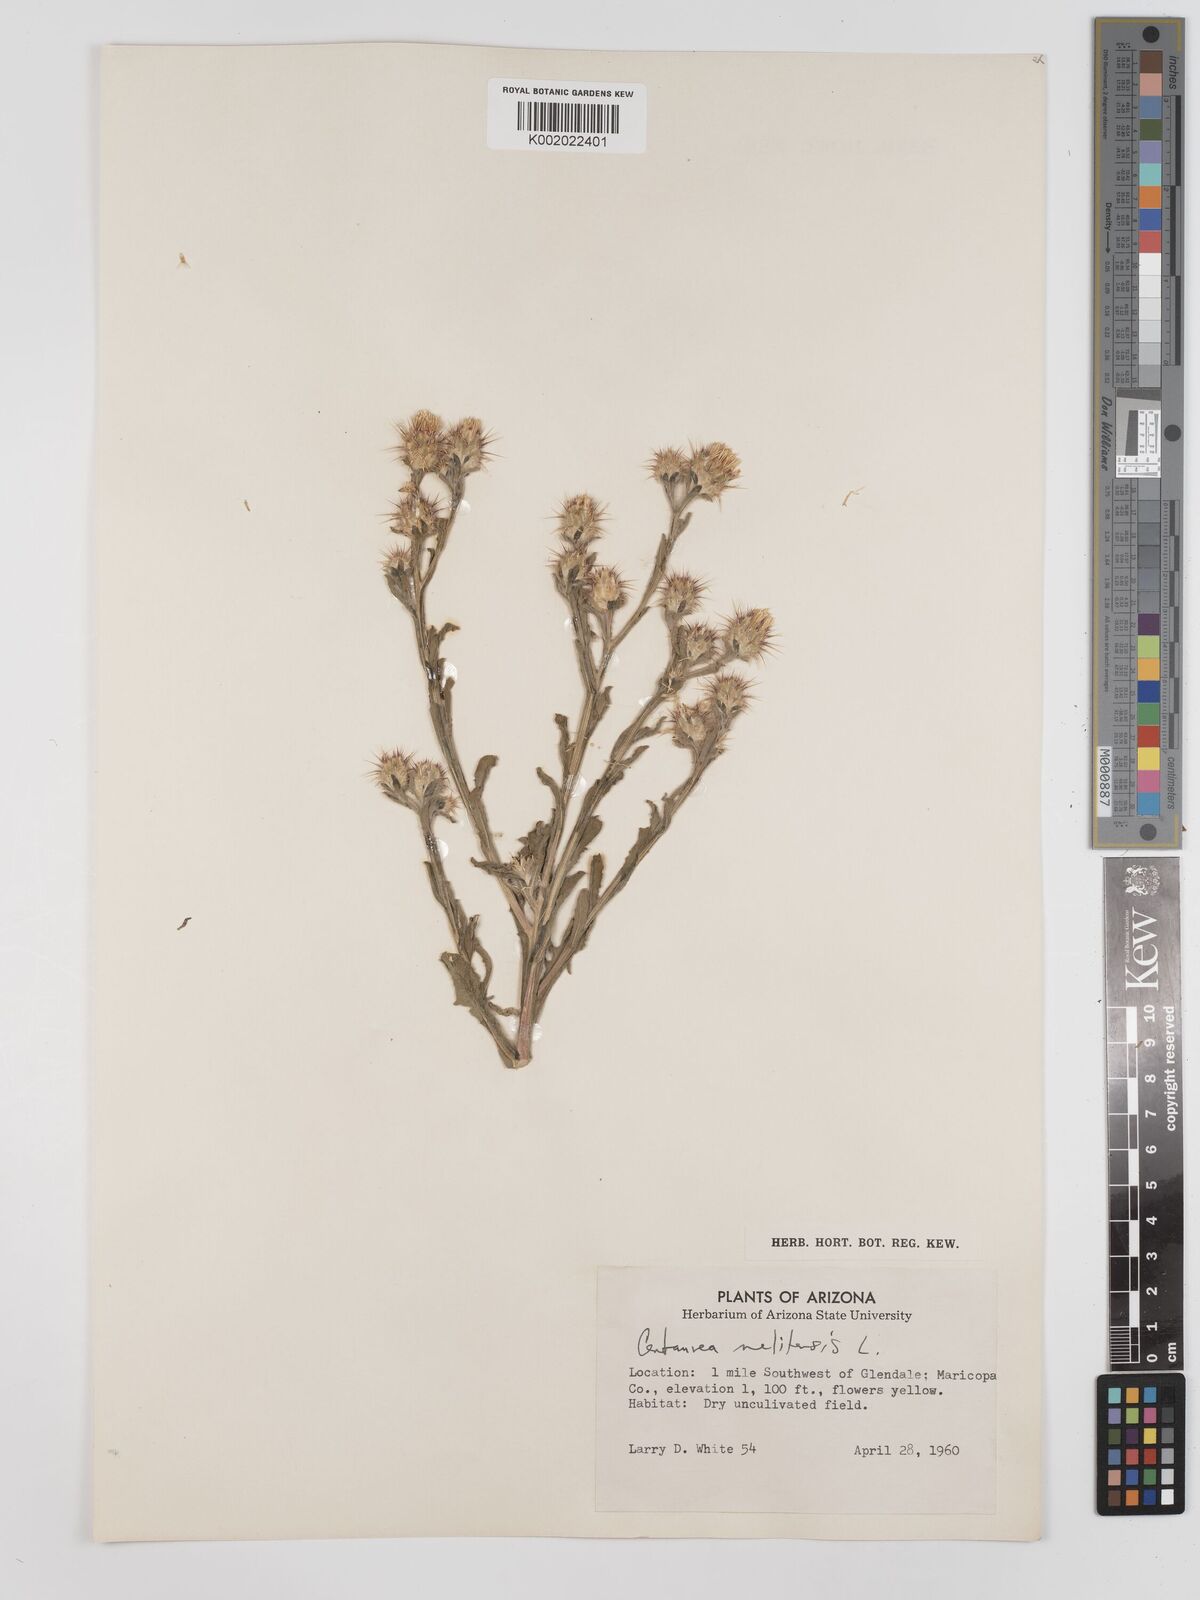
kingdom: Plantae
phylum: Tracheophyta
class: Magnoliopsida
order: Asterales
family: Asteraceae
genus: Centaurea
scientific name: Centaurea melitensis
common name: Maltese star-thistle
